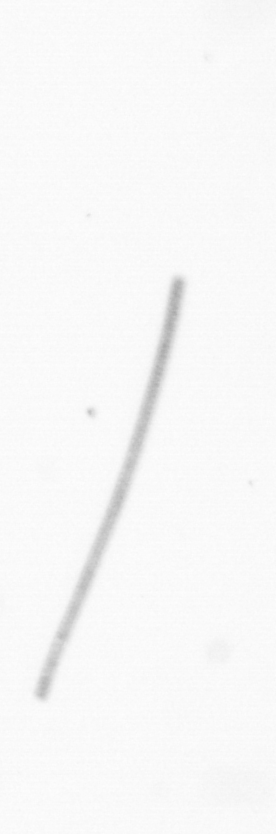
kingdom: Chromista
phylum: Ochrophyta
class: Bacillariophyceae
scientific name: Bacillariophyceae
